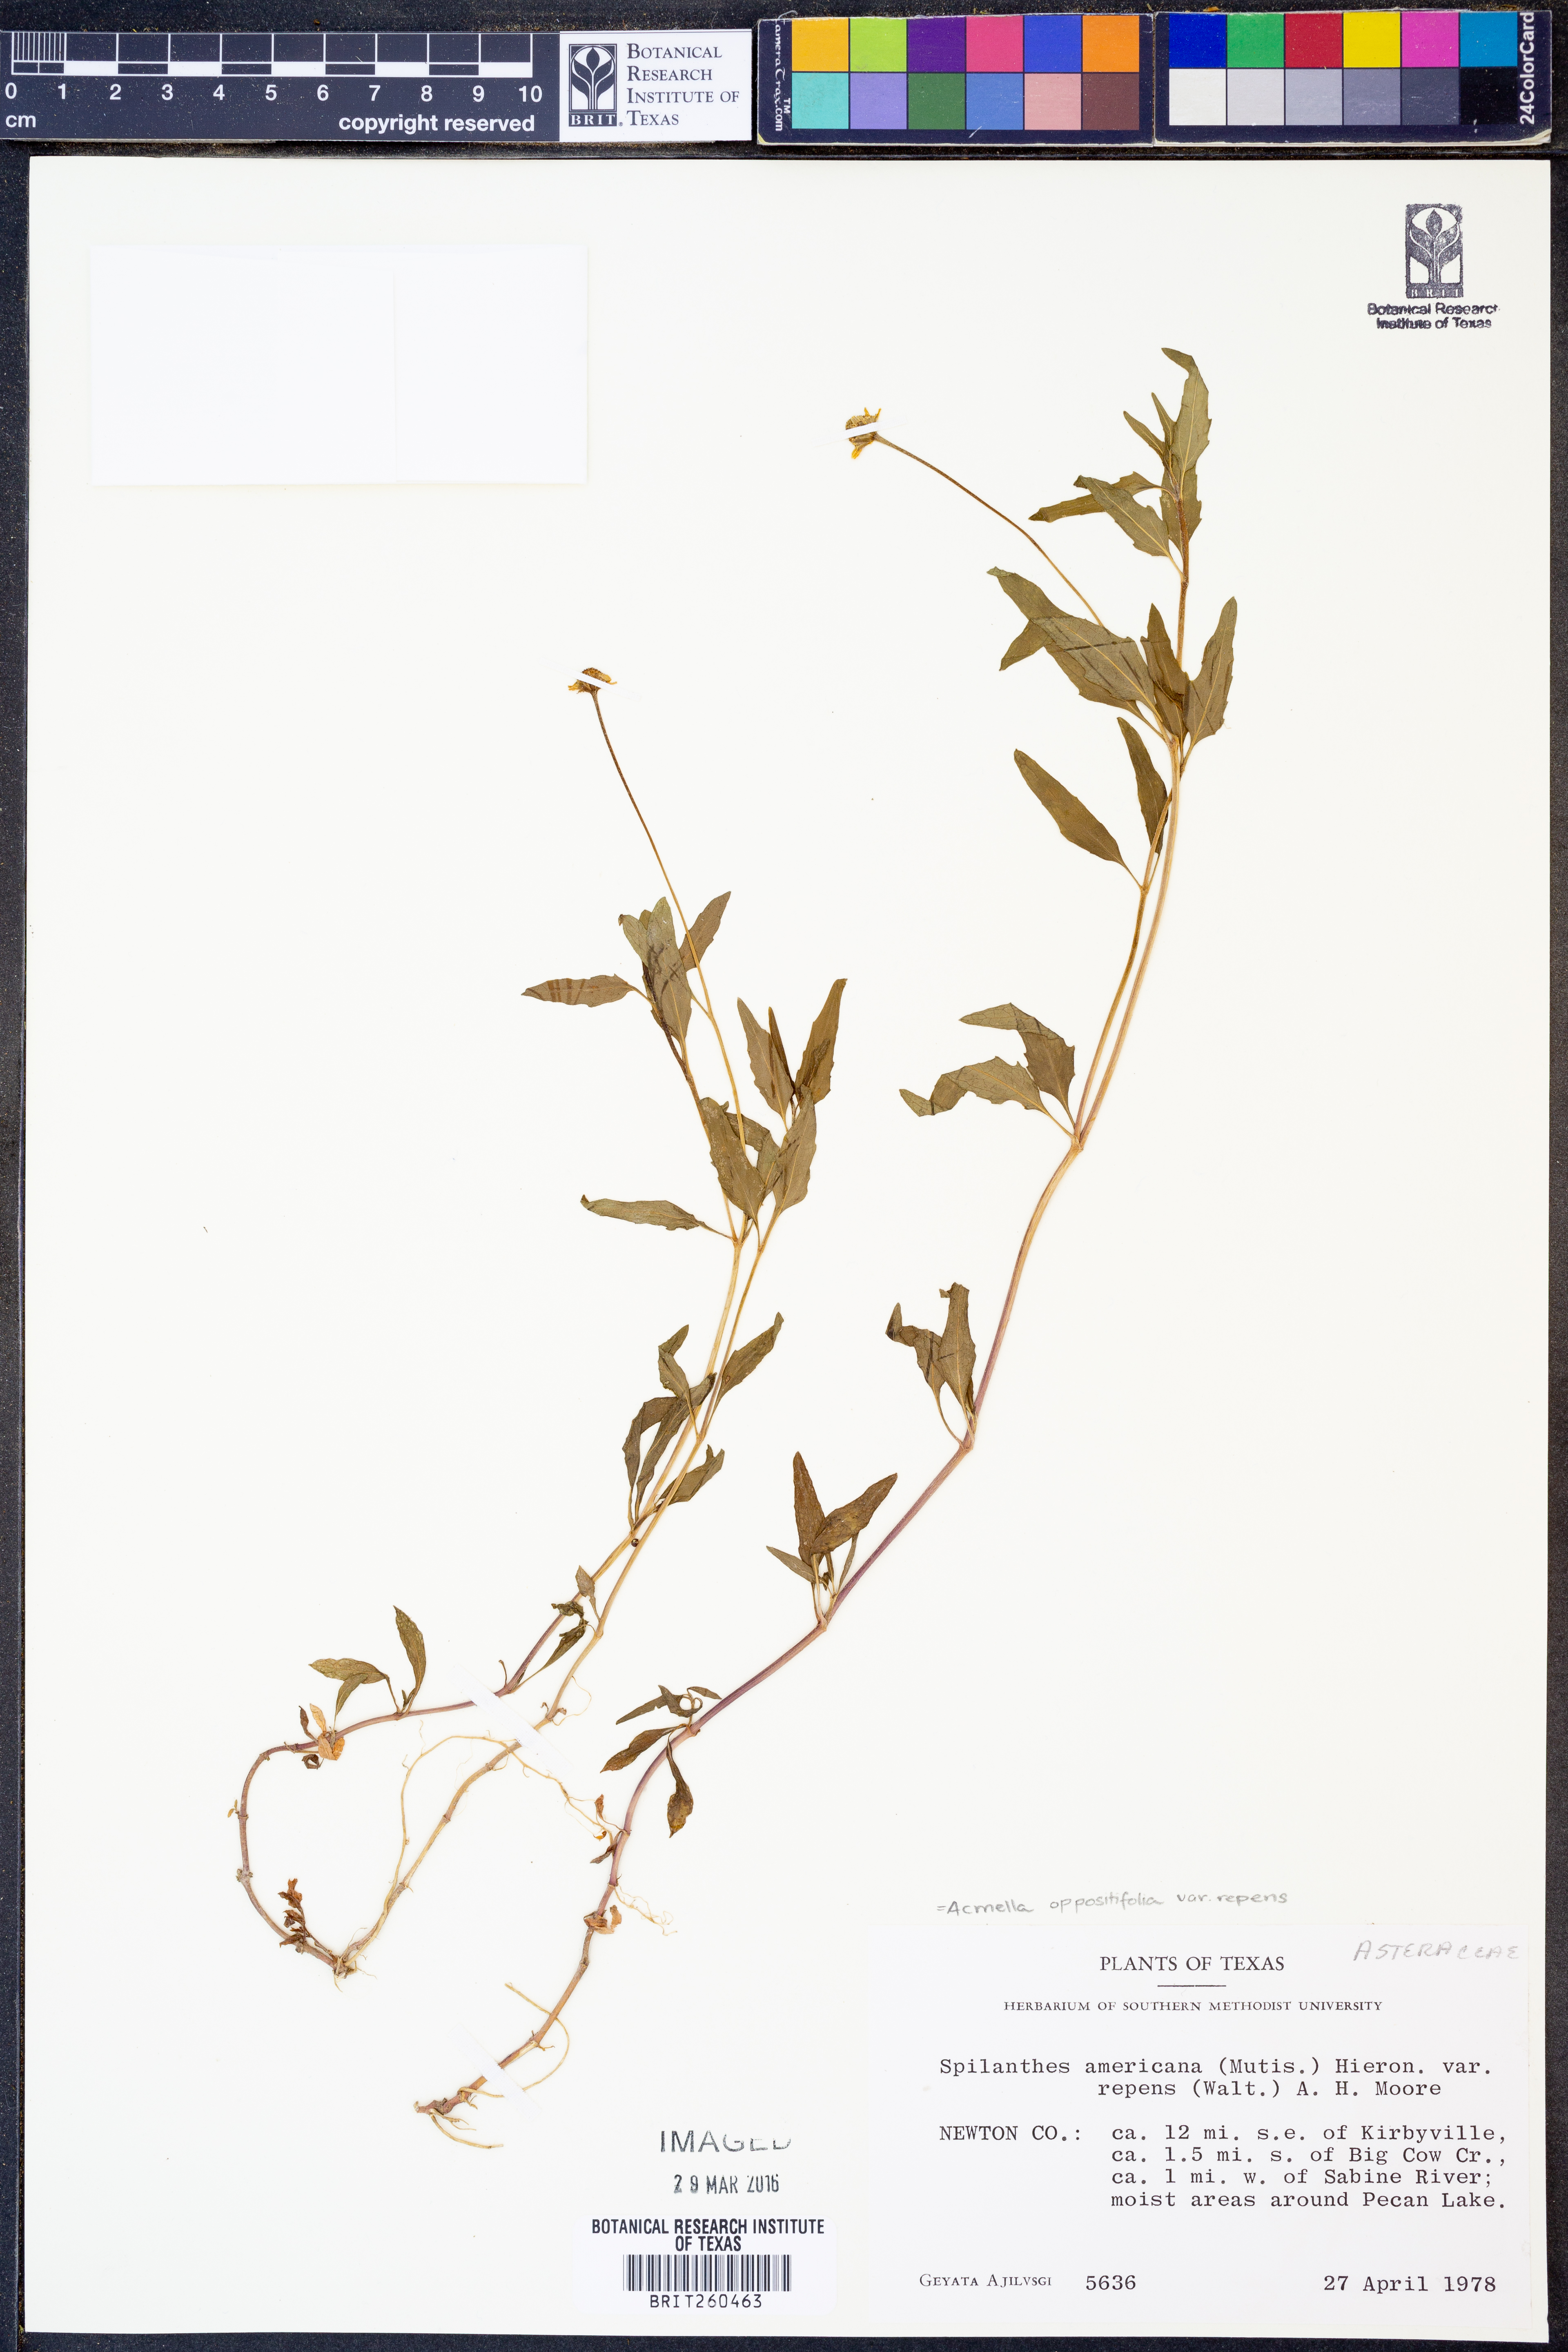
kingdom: Plantae
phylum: Tracheophyta
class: Magnoliopsida
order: Asterales
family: Asteraceae
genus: Acmella
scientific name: Acmella repens
